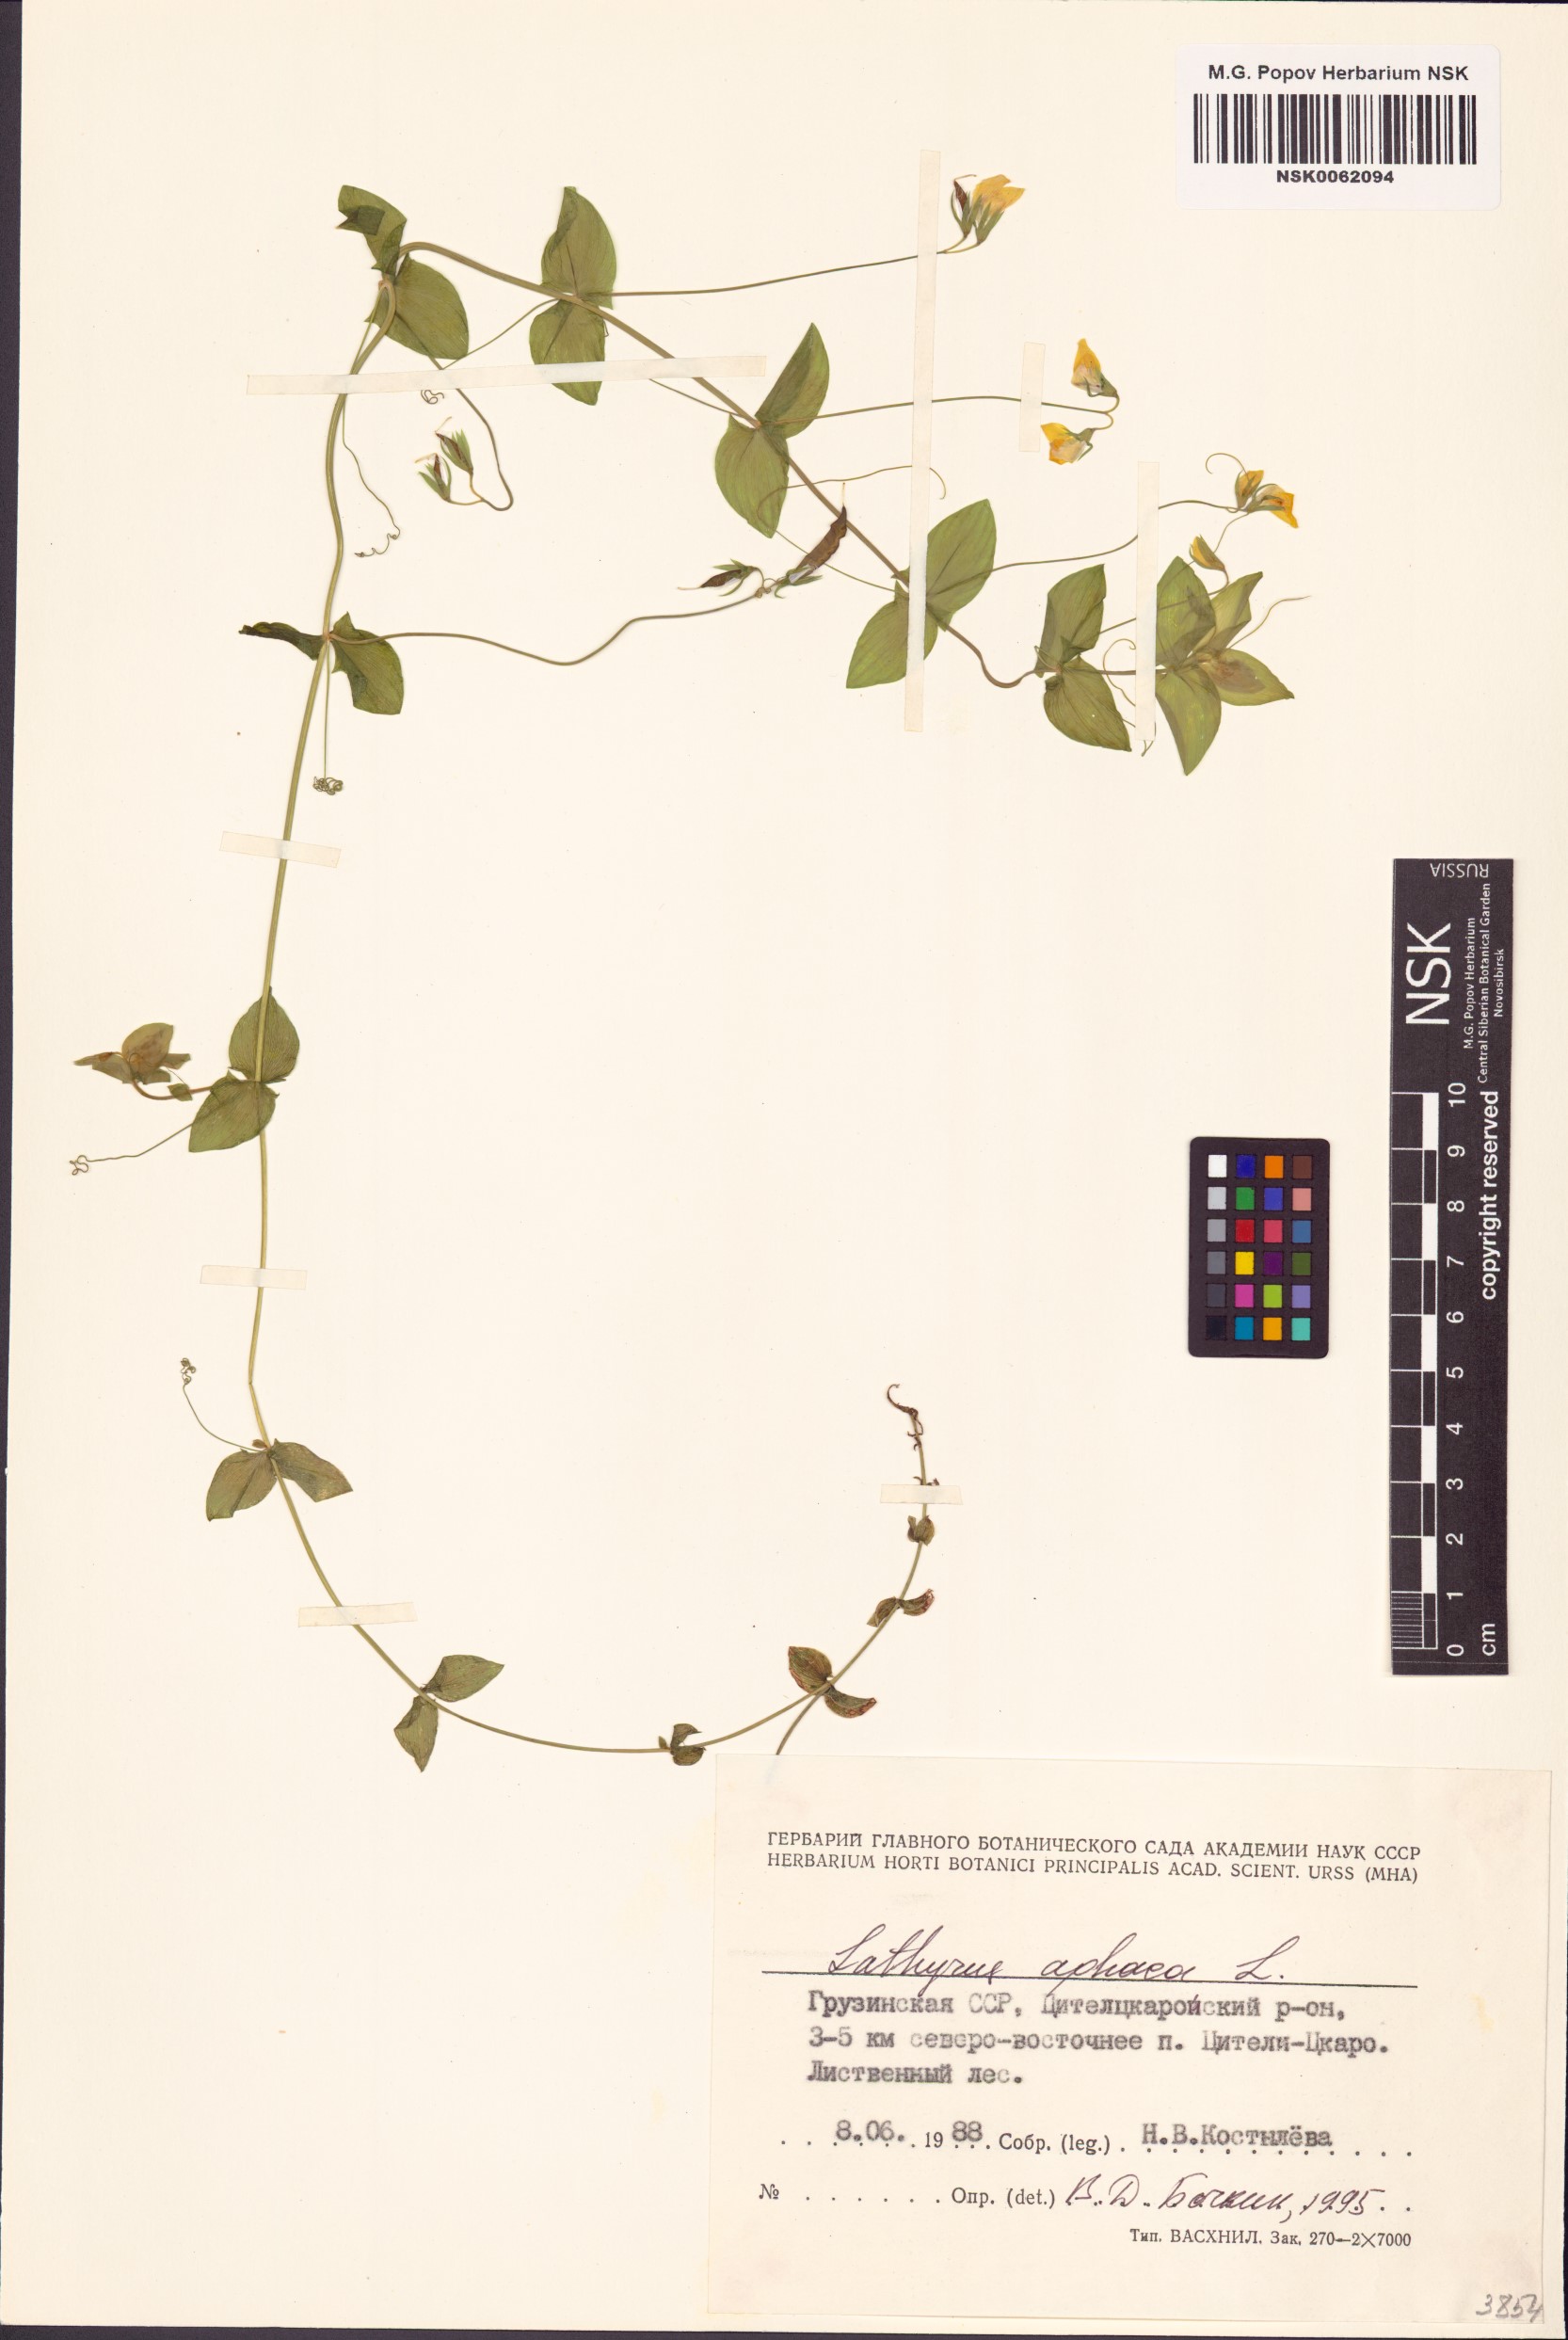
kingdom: Plantae
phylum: Tracheophyta
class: Magnoliopsida
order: Fabales
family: Fabaceae
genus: Lathyrus
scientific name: Lathyrus aphaca
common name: Yellow vetchling
